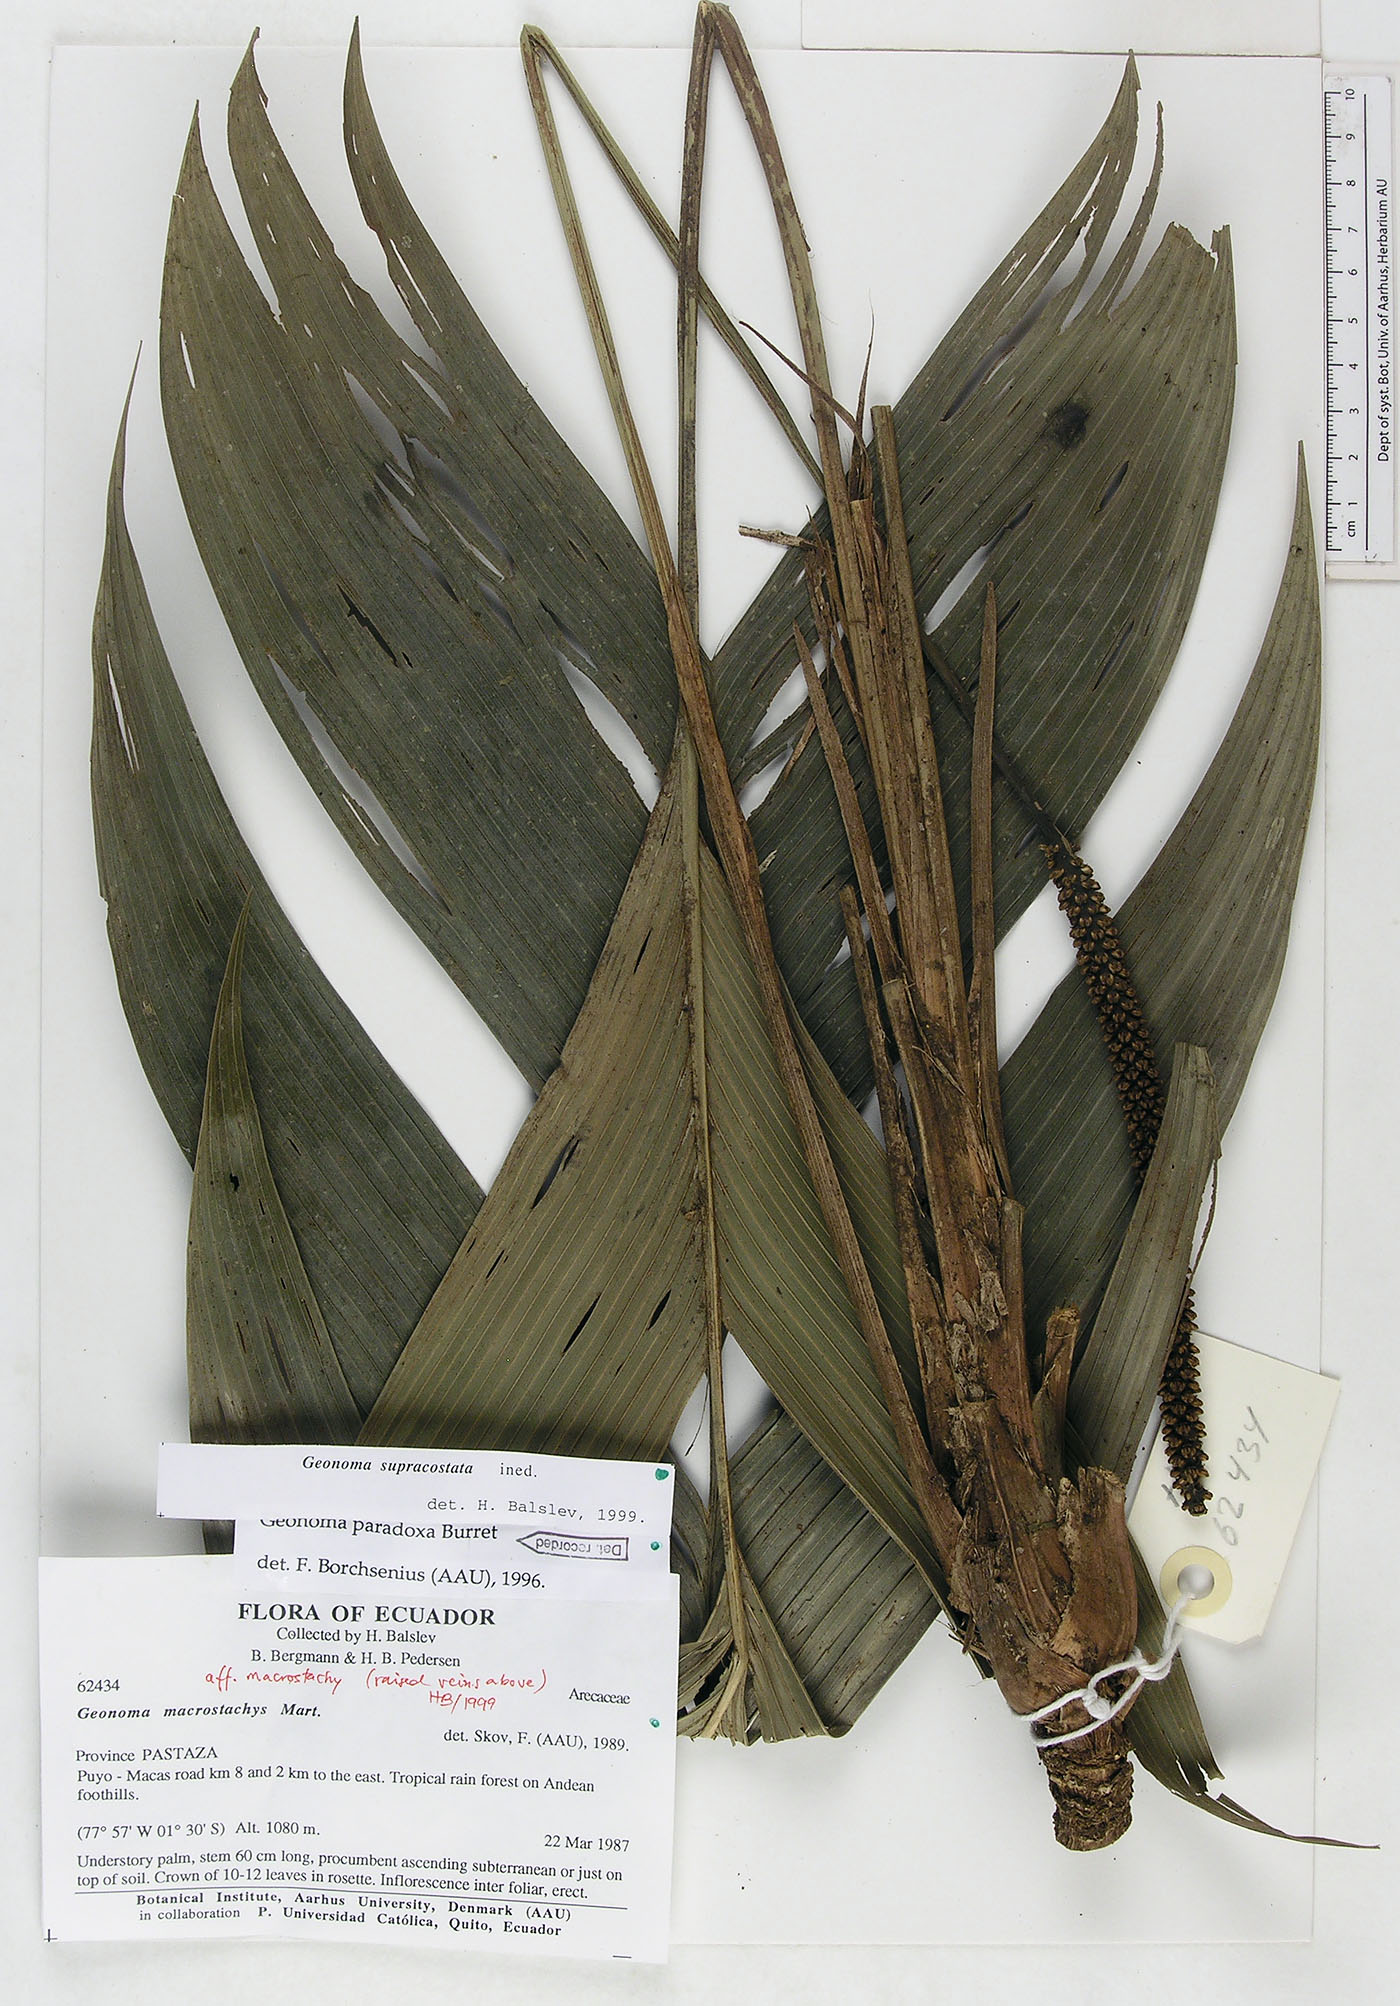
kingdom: Plantae
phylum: Tracheophyta
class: Liliopsida
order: Arecales
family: Arecaceae
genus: Geonoma
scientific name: Geonoma macrostachys
